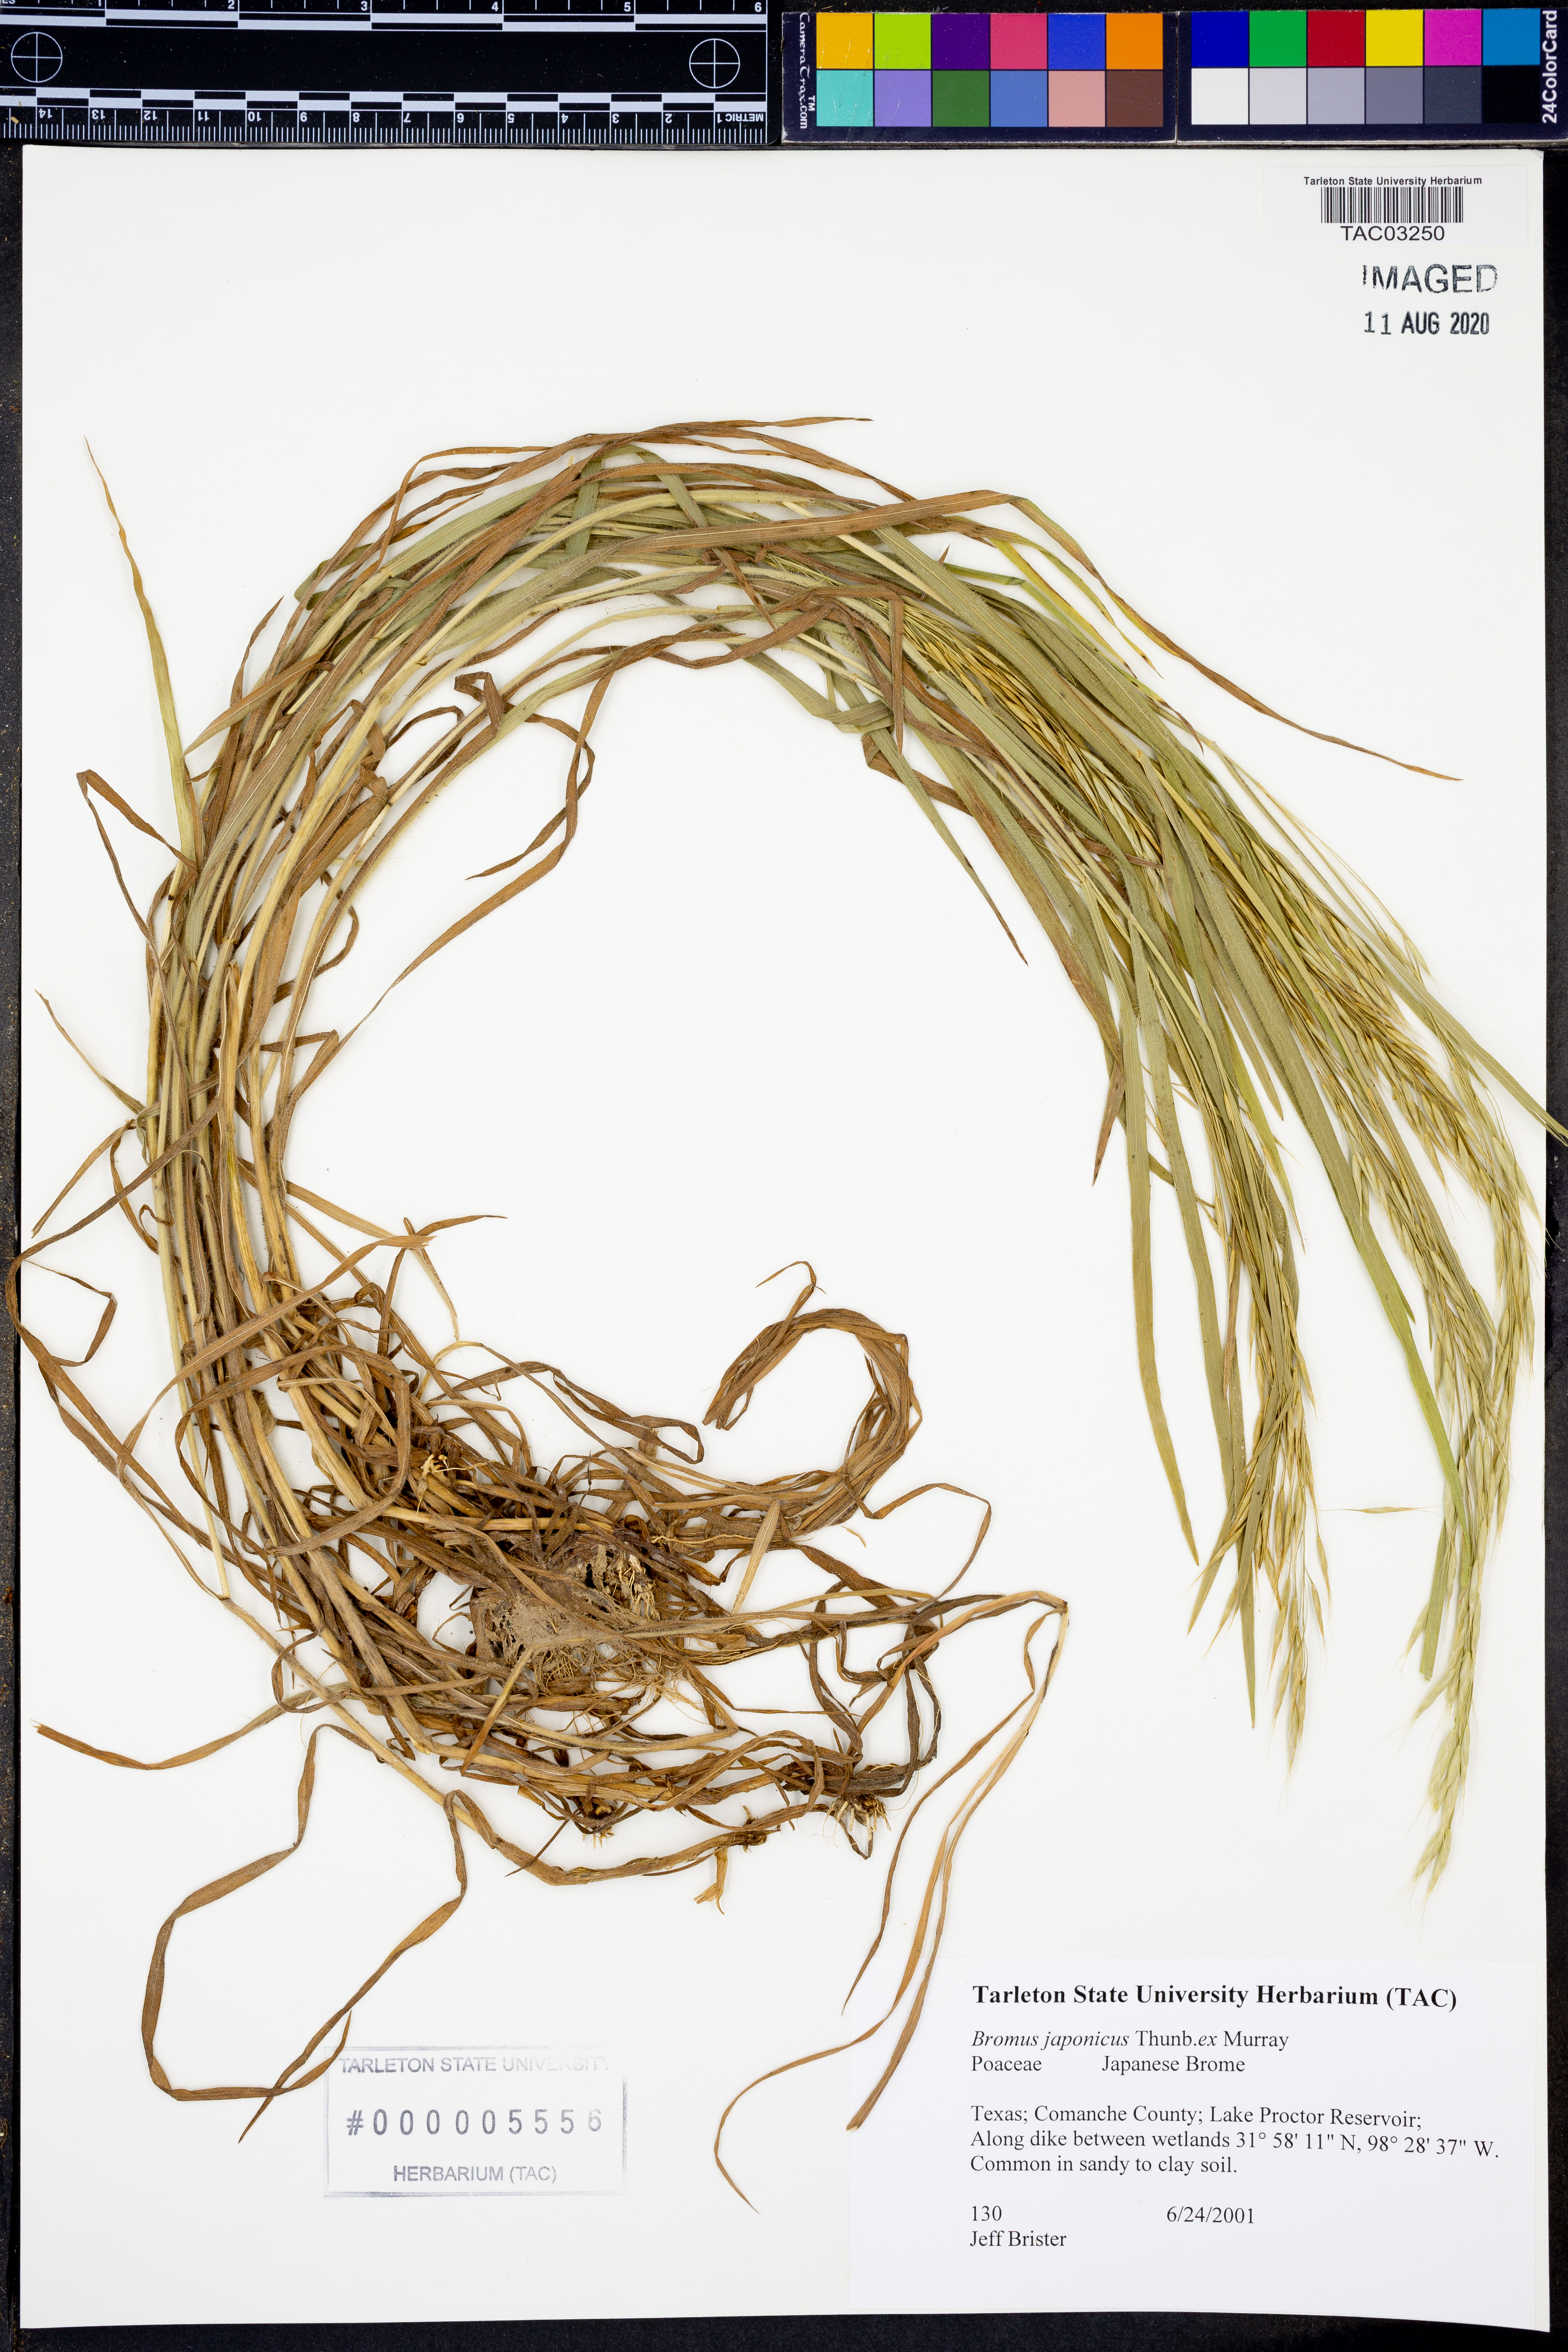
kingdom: Plantae
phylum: Tracheophyta
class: Liliopsida
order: Poales
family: Poaceae
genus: Bromus
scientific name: Bromus japonicus
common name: Japanese brome
